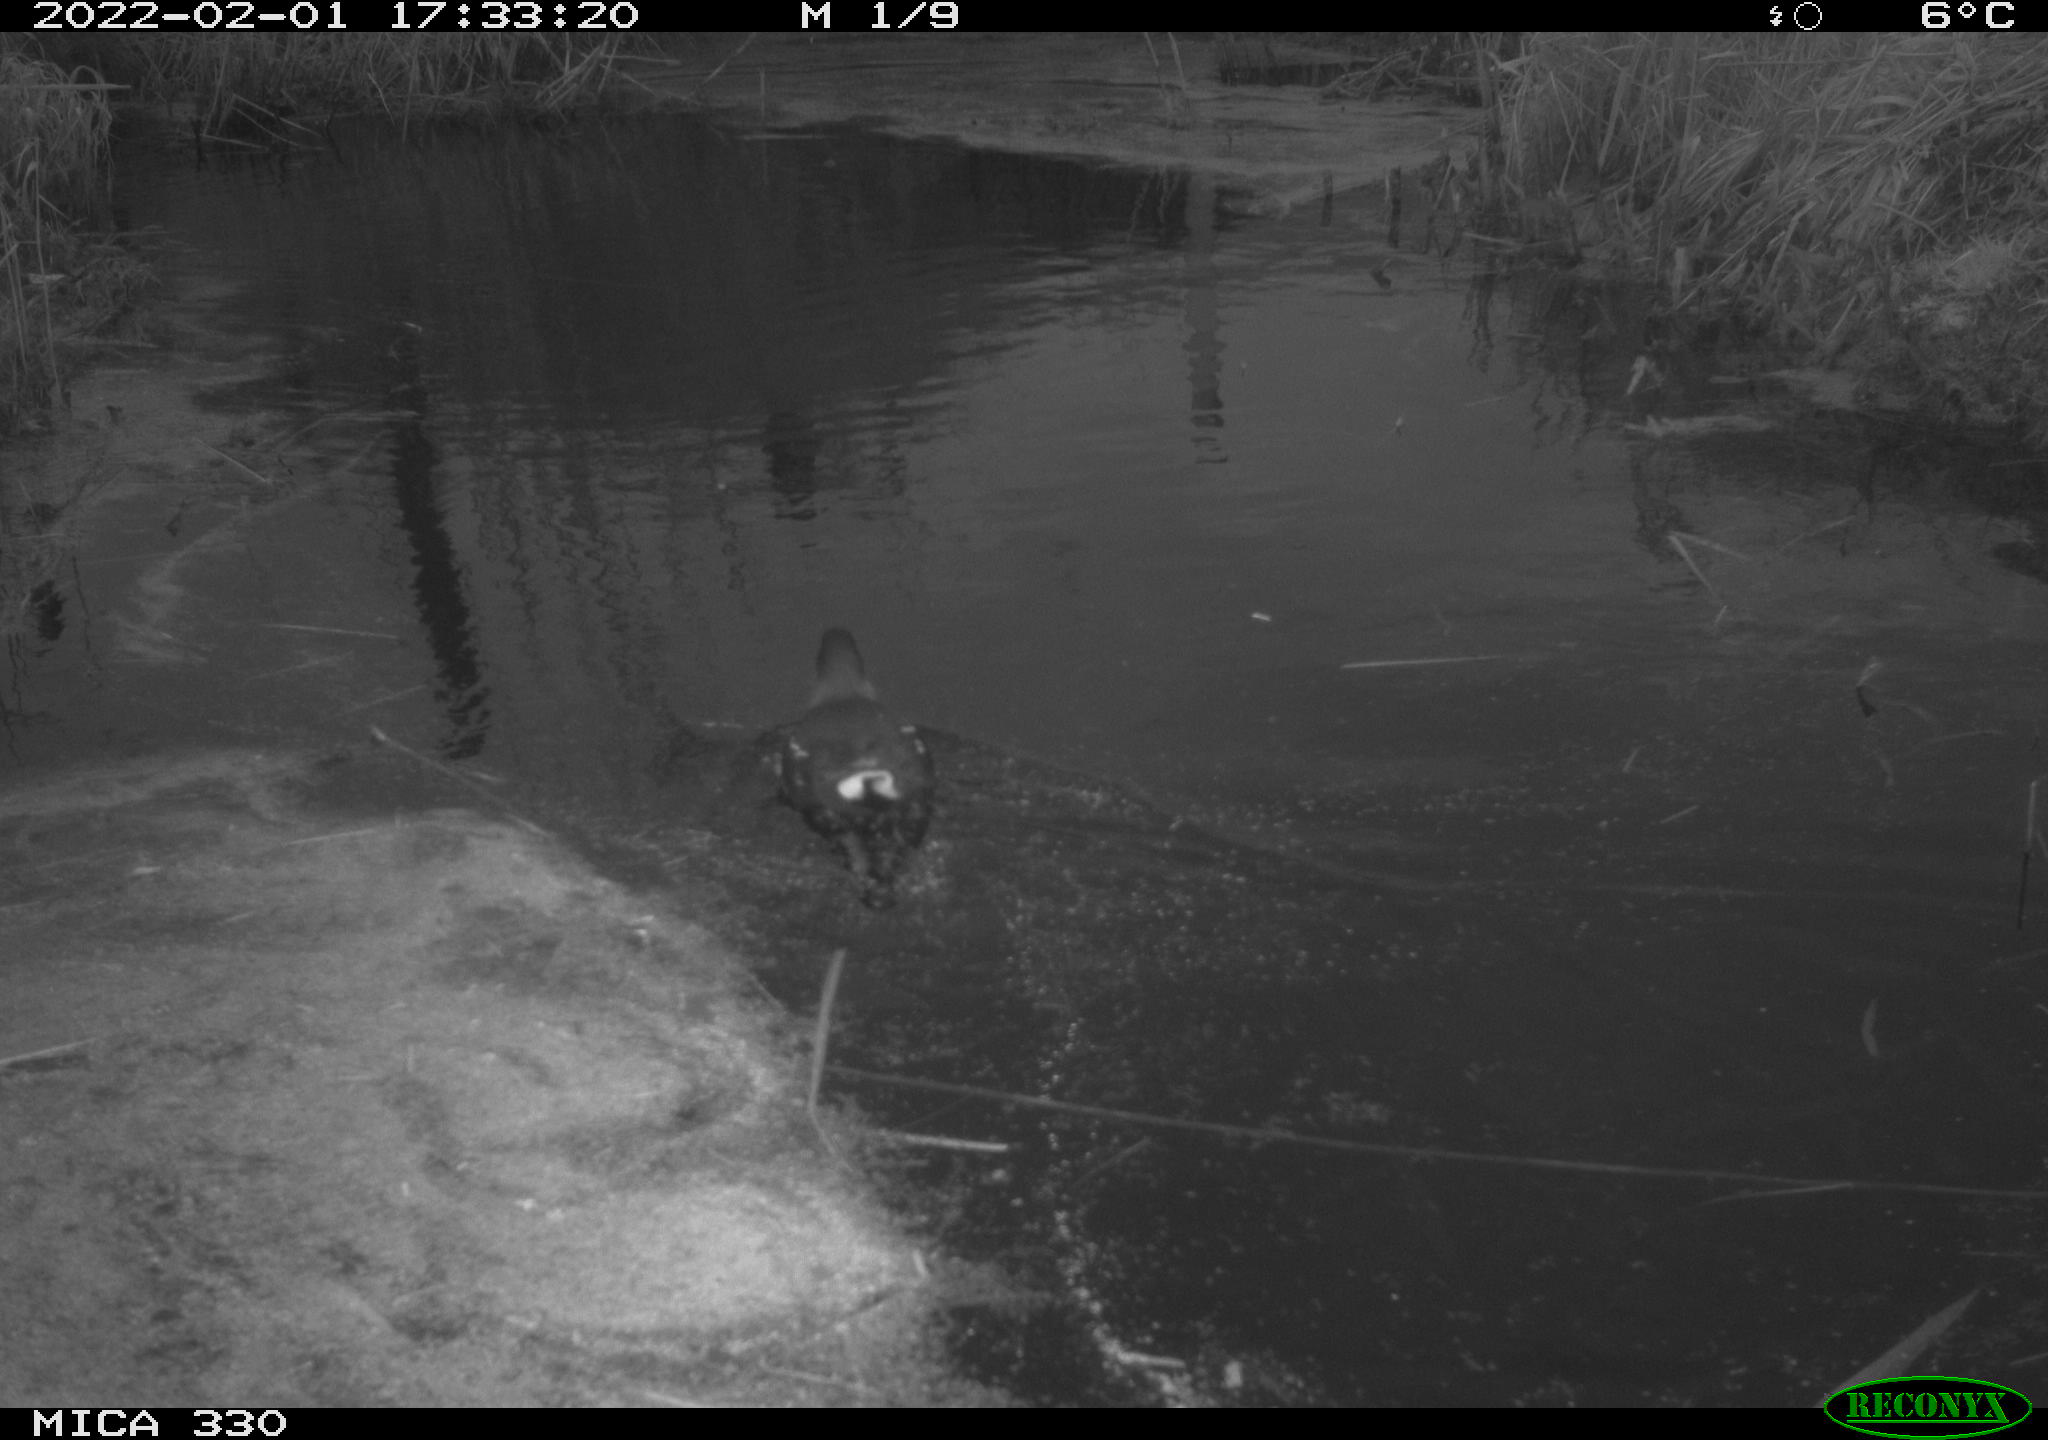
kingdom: Animalia
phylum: Chordata
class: Aves
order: Gruiformes
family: Rallidae
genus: Gallinula
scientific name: Gallinula chloropus
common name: Common moorhen
